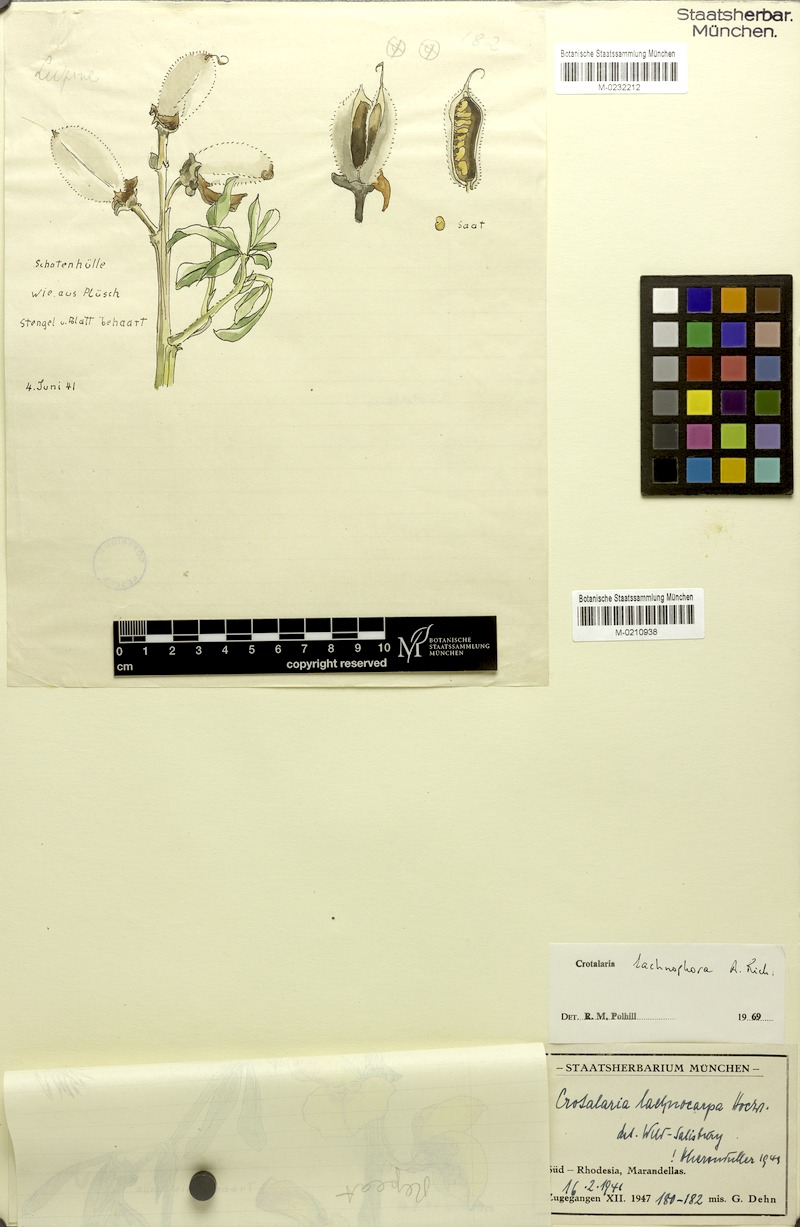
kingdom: Plantae
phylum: Tracheophyta
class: Magnoliopsida
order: Fabales
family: Fabaceae
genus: Crotalaria
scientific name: Crotalaria lachnophora
